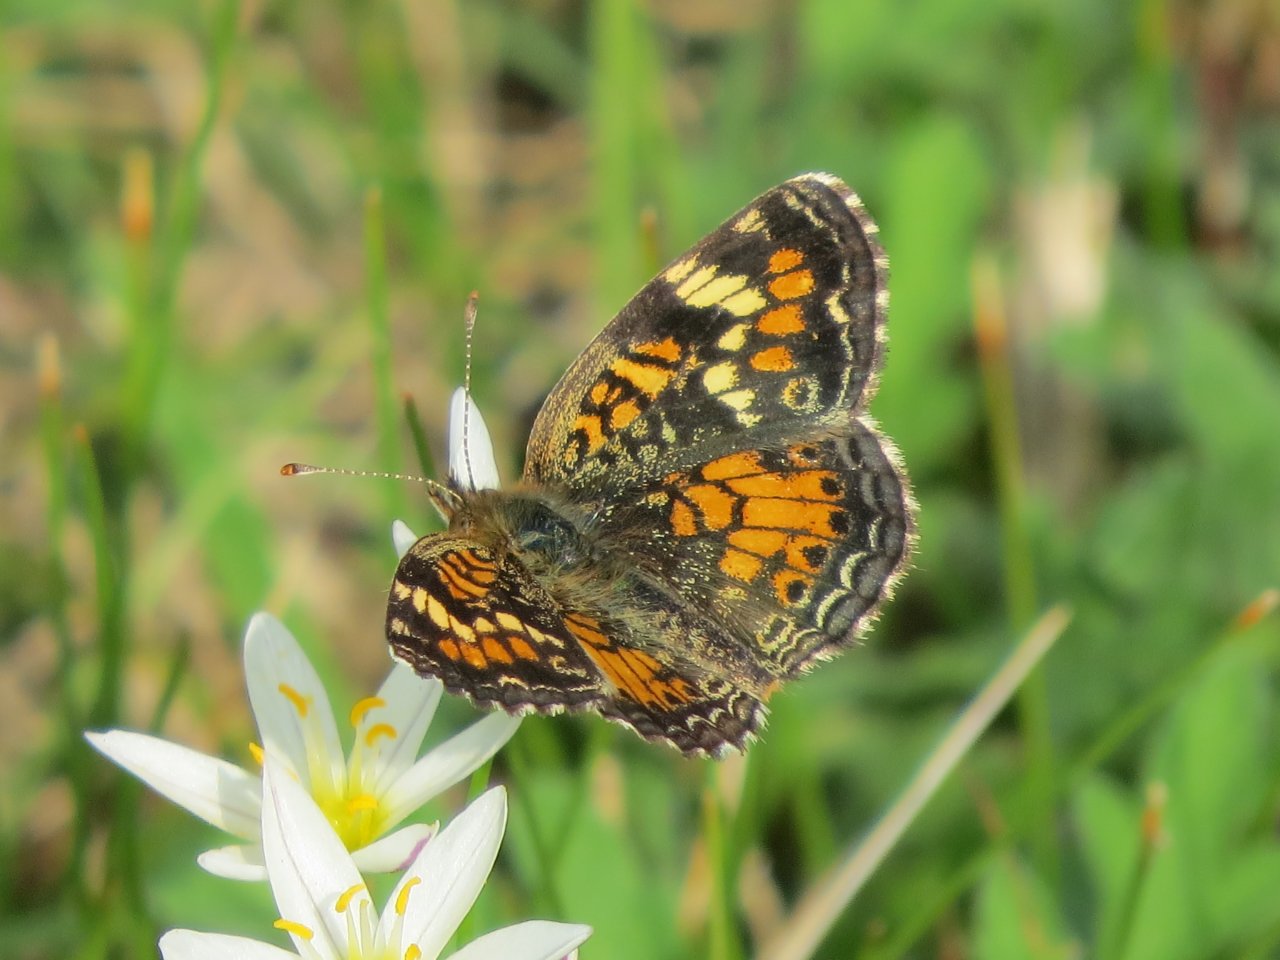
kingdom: Animalia
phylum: Arthropoda
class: Insecta
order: Lepidoptera
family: Nymphalidae
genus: Phyciodes
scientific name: Phyciodes phaon
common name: Phaon Crescent
